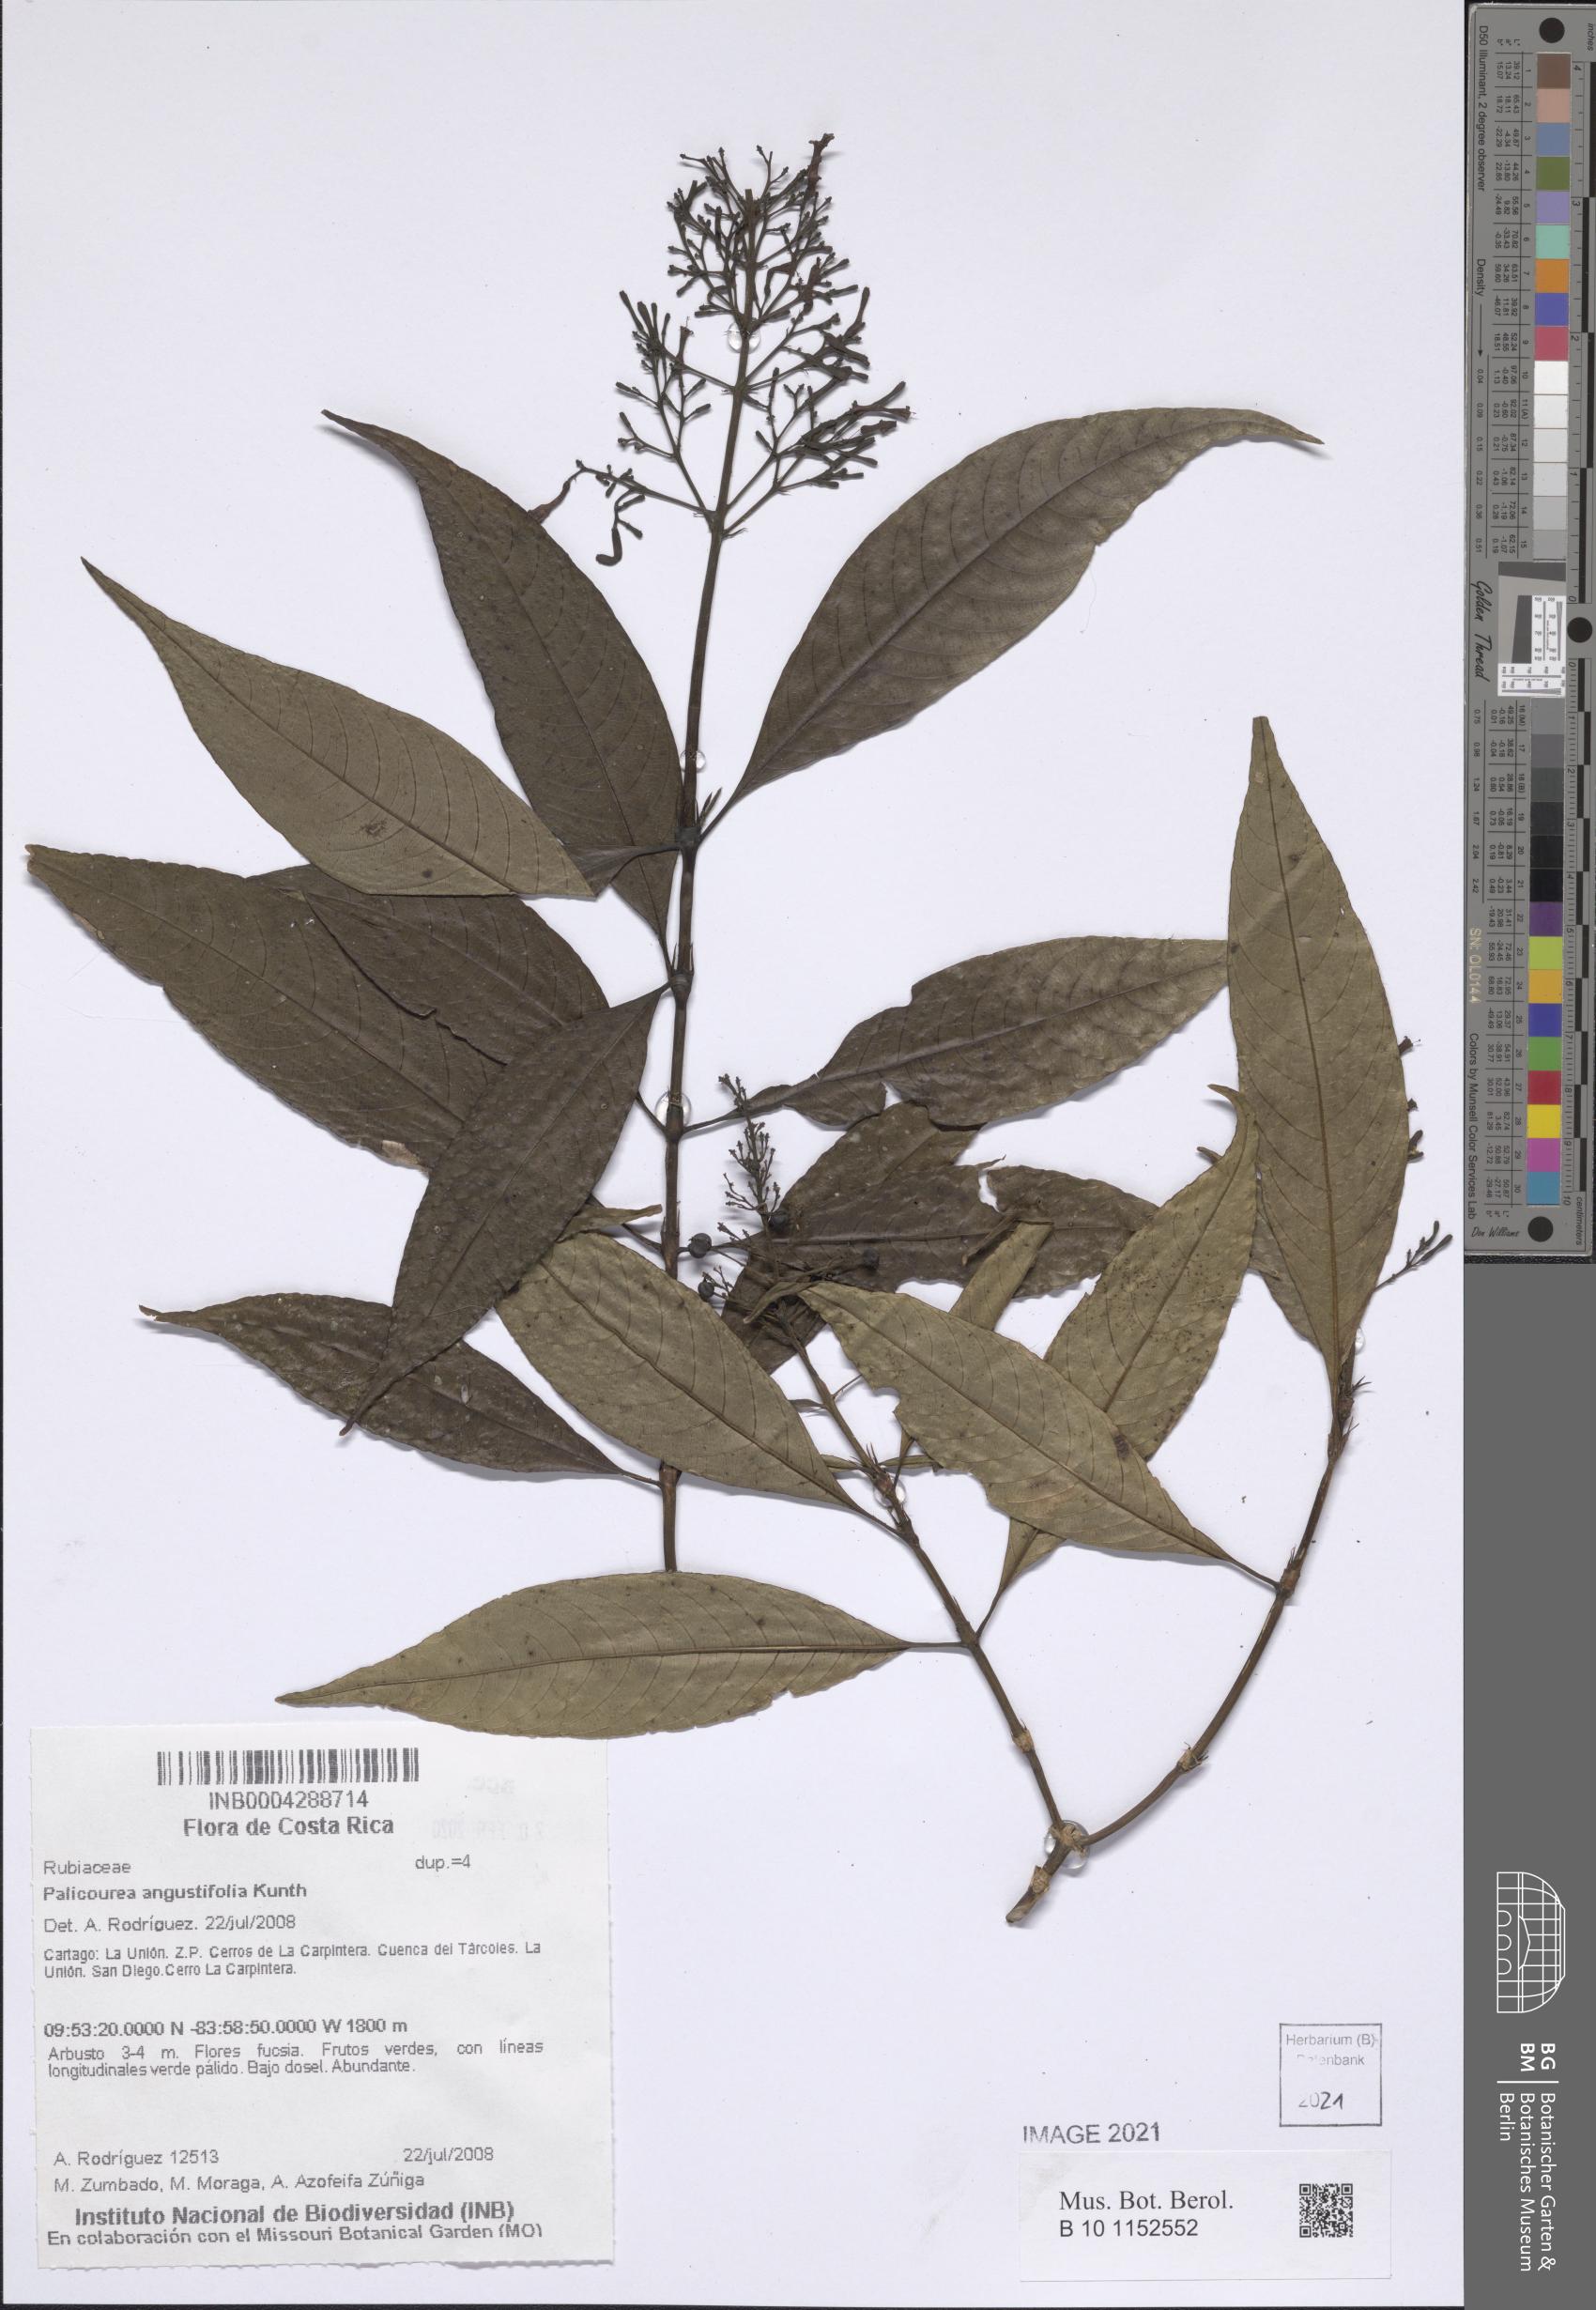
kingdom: Plantae
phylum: Tracheophyta
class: Magnoliopsida
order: Gentianales
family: Rubiaceae
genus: Palicourea
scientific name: Palicourea angustifolia
